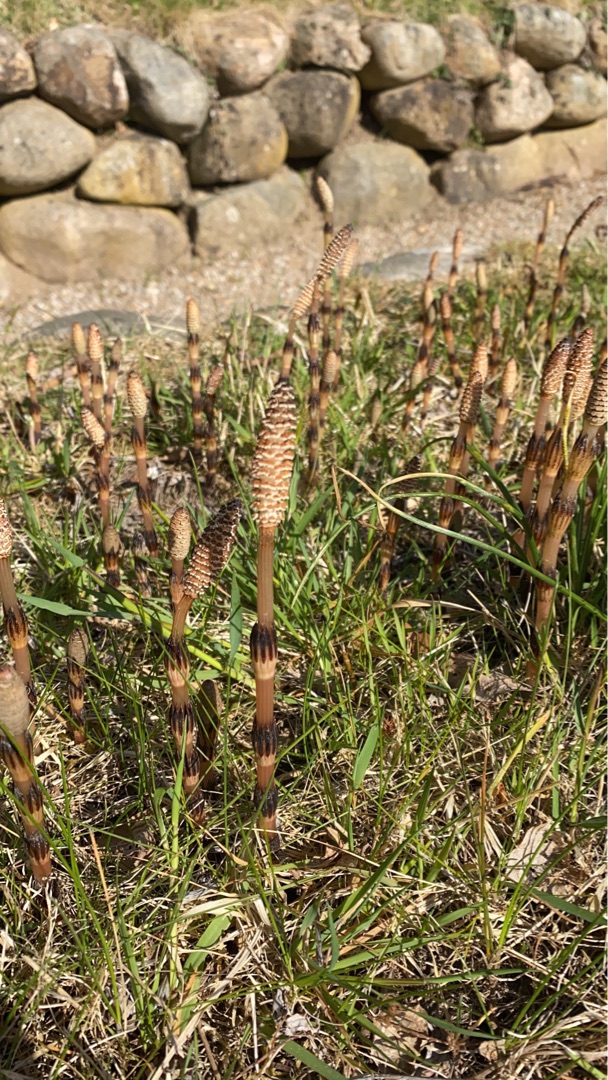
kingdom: Plantae
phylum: Tracheophyta
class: Polypodiopsida
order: Equisetales
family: Equisetaceae
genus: Equisetum
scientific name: Equisetum arvense
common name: Ager-padderok
